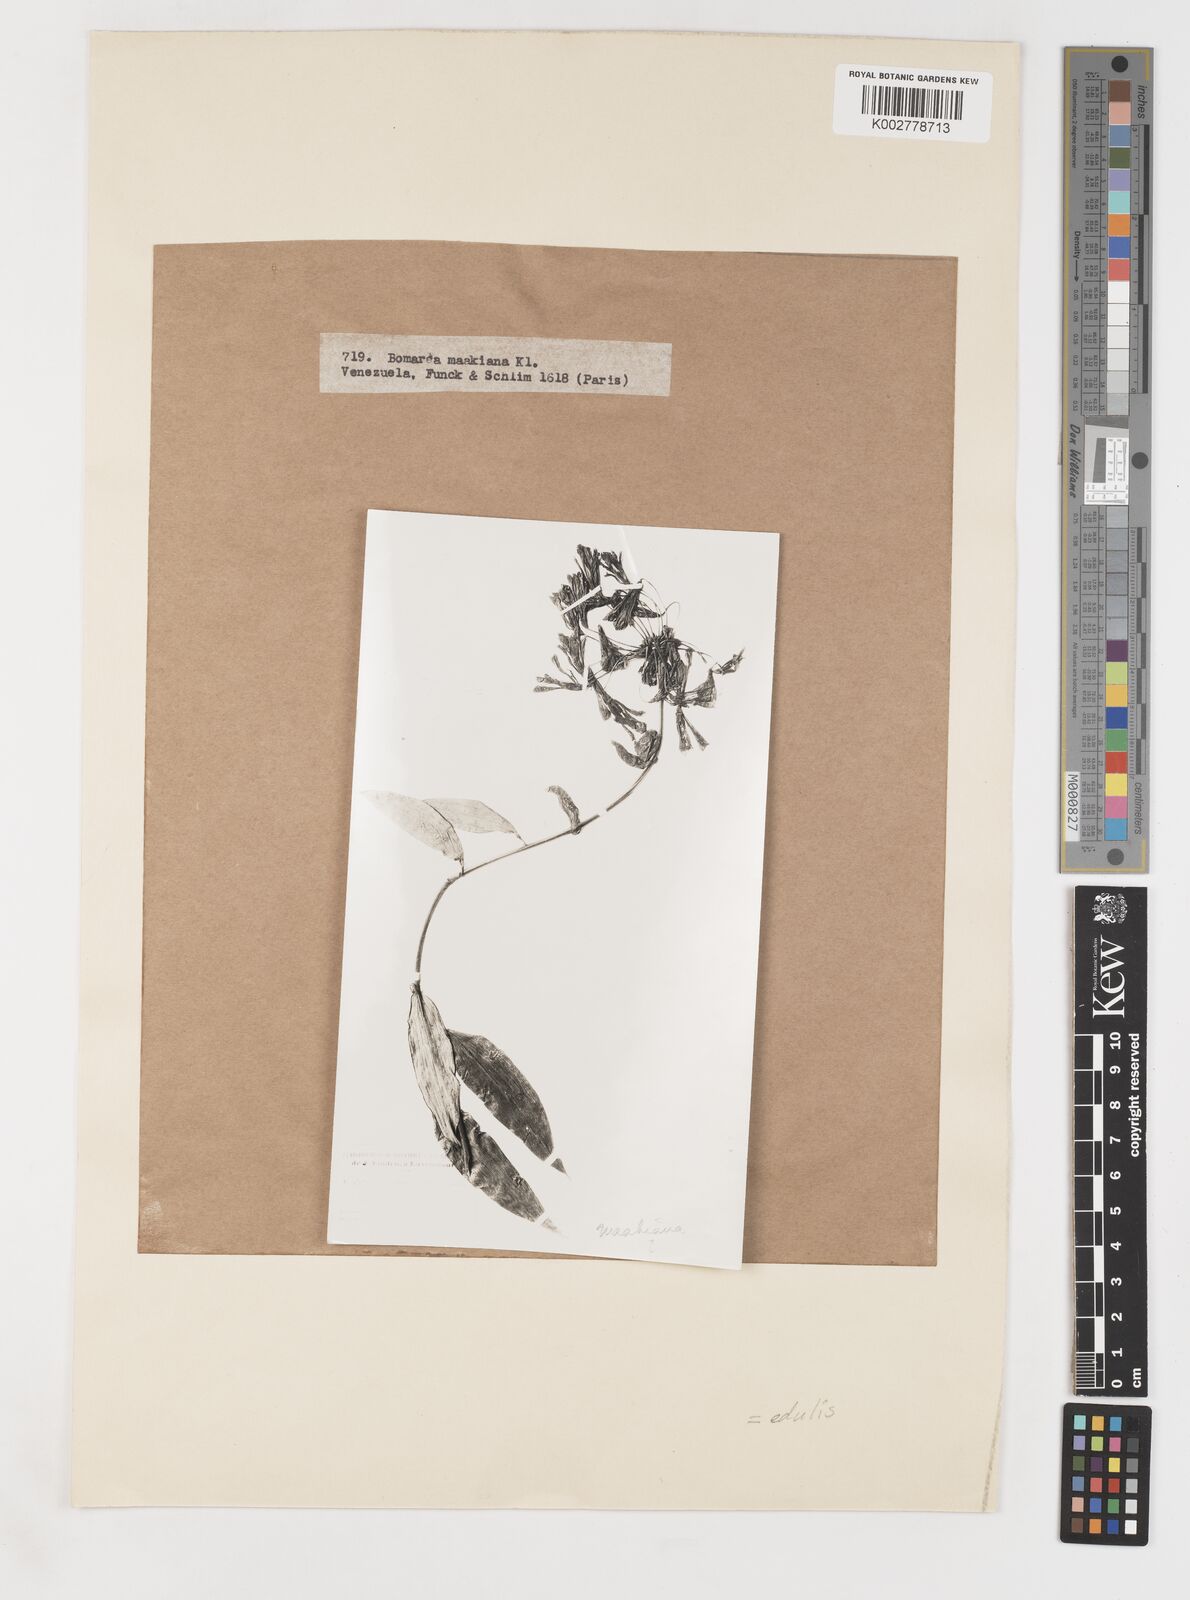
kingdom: Plantae
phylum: Tracheophyta
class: Liliopsida
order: Liliales
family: Alstroemeriaceae
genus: Bomarea
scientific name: Bomarea edulis
